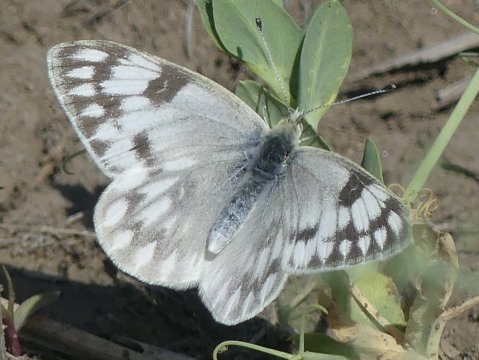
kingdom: Animalia
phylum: Arthropoda
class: Insecta
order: Lepidoptera
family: Pieridae
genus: Pontia
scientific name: Pontia occidentalis
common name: Western White
